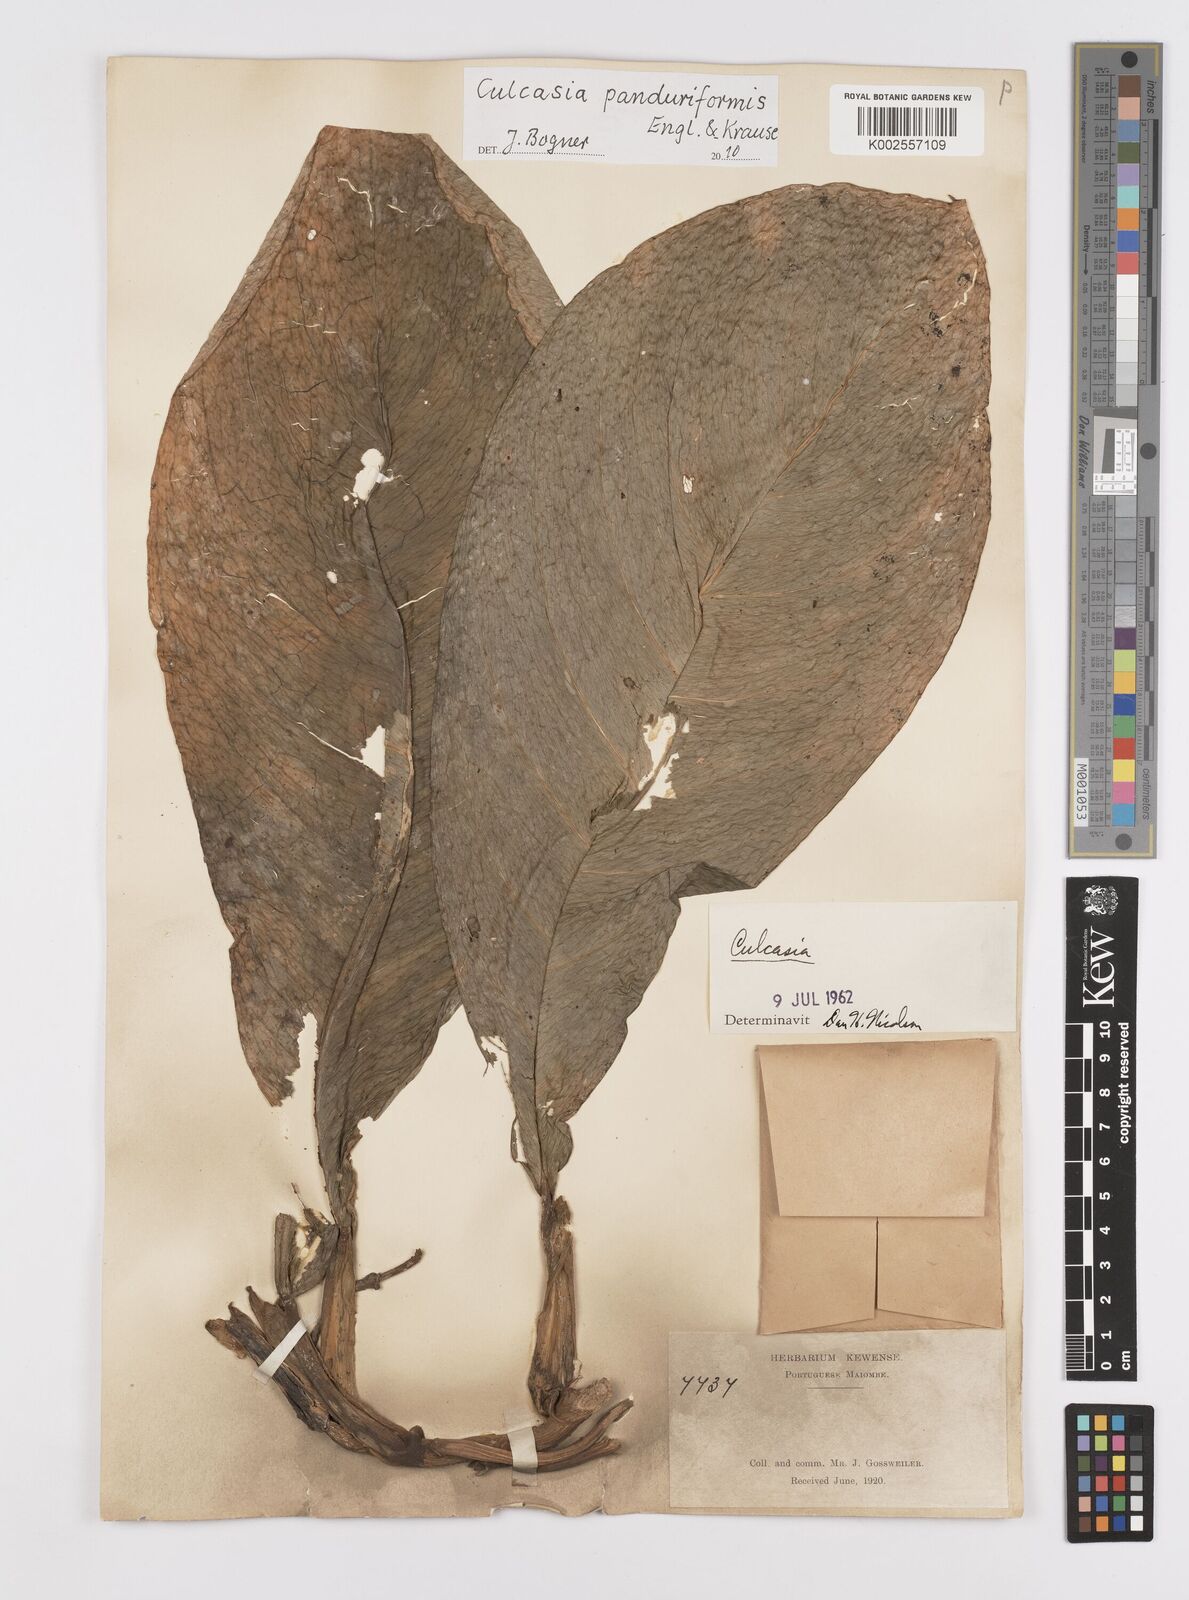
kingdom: Plantae
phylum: Tracheophyta
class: Liliopsida
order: Alismatales
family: Araceae
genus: Culcasia
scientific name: Culcasia panduriformis
